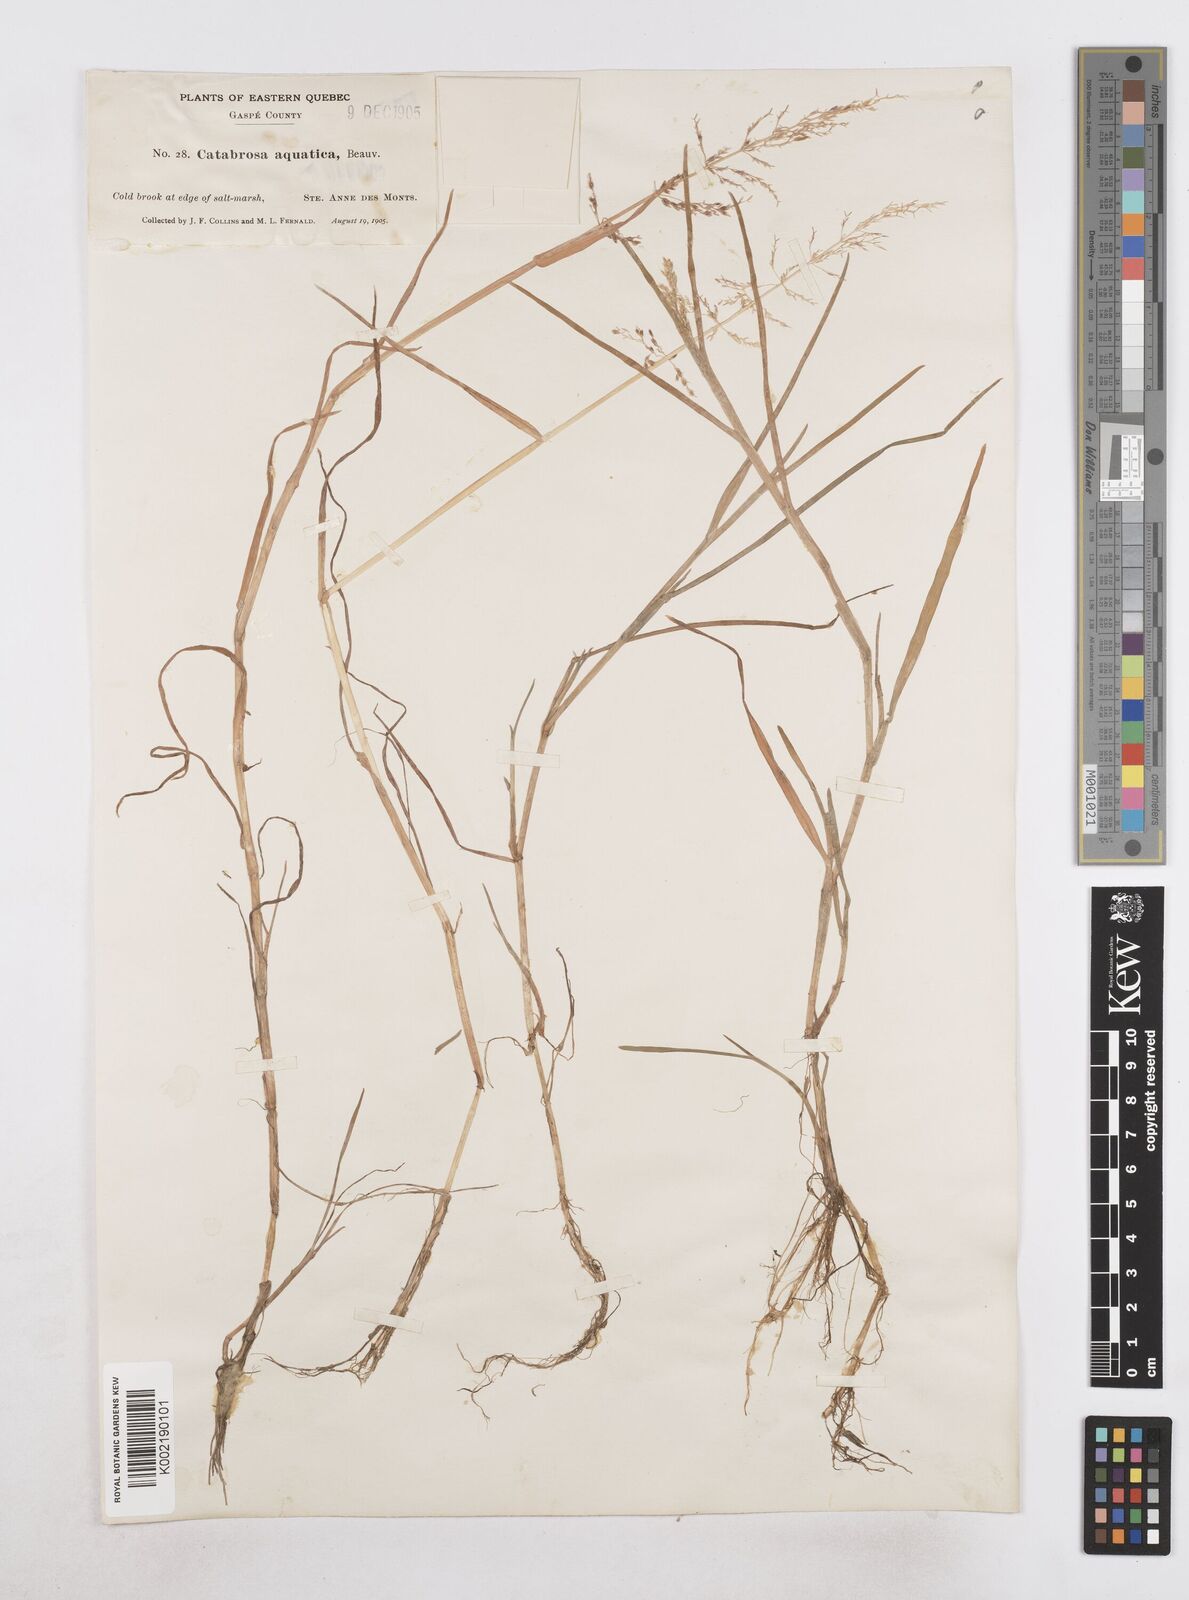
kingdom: Plantae
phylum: Tracheophyta
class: Liliopsida
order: Poales
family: Poaceae
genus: Catabrosa
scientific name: Catabrosa aquatica
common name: Whorl-grass
